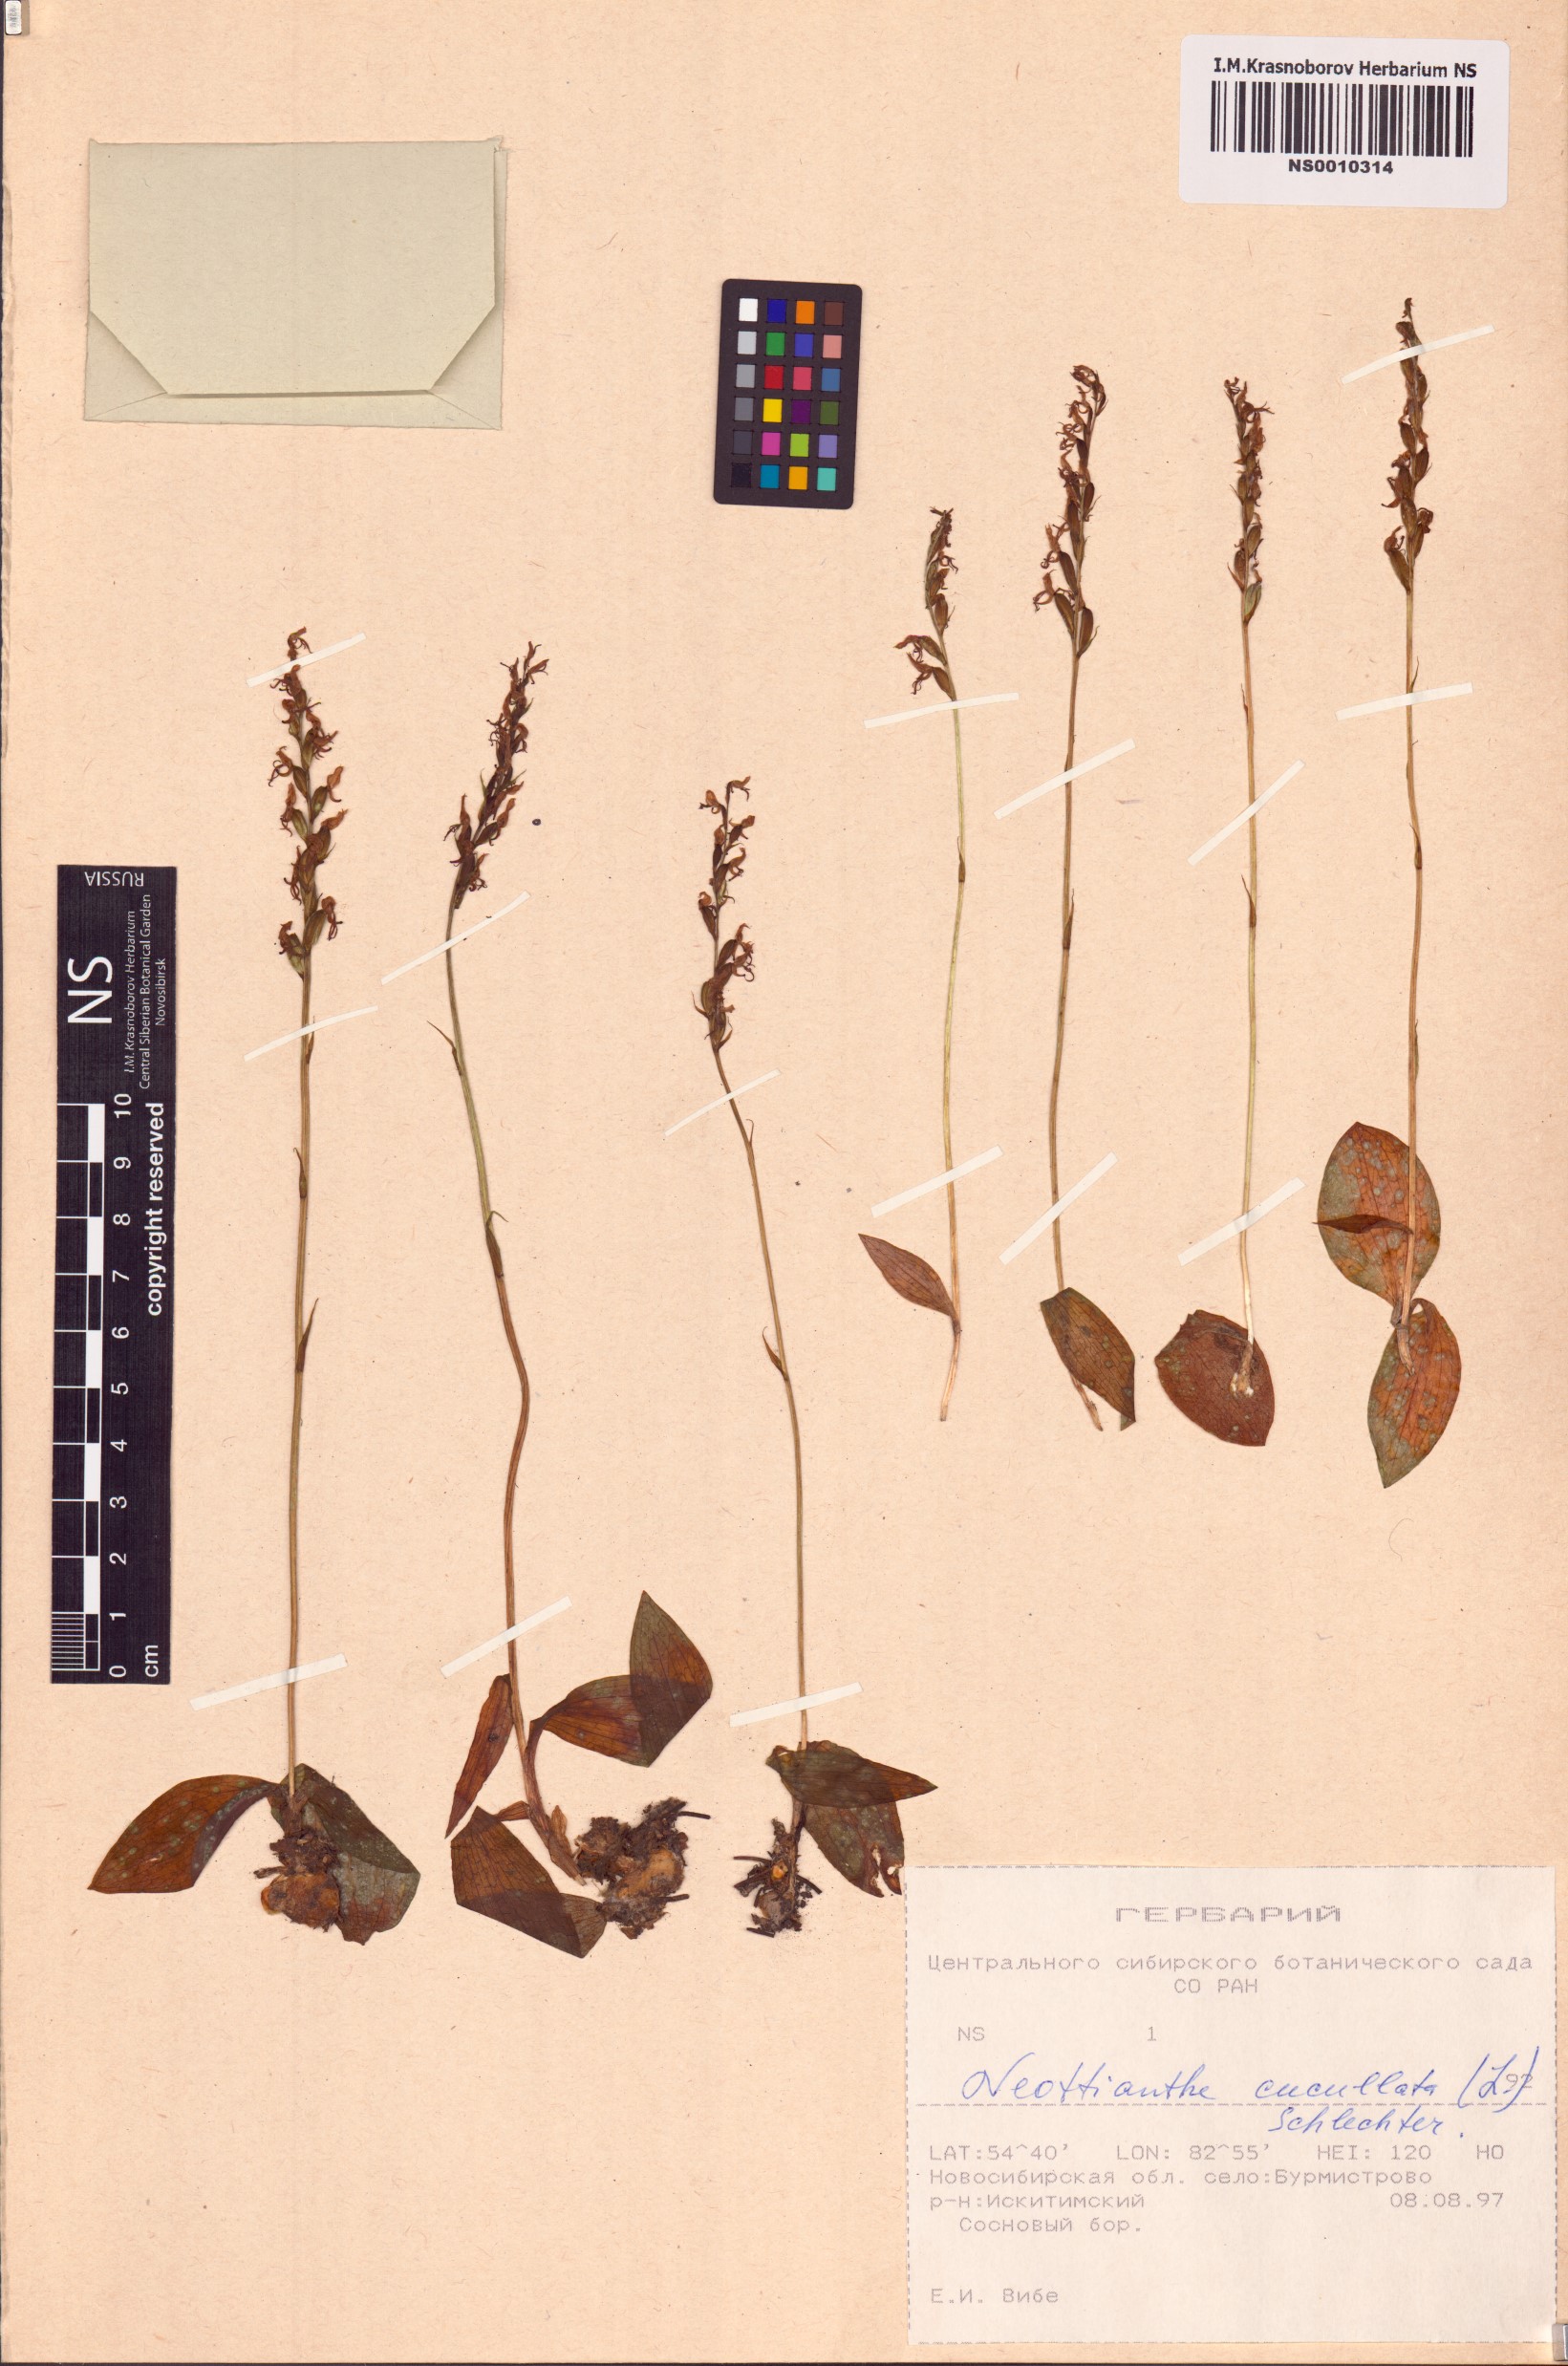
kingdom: Plantae
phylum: Tracheophyta
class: Liliopsida
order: Asparagales
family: Orchidaceae
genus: Hemipilia
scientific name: Hemipilia cucullata
